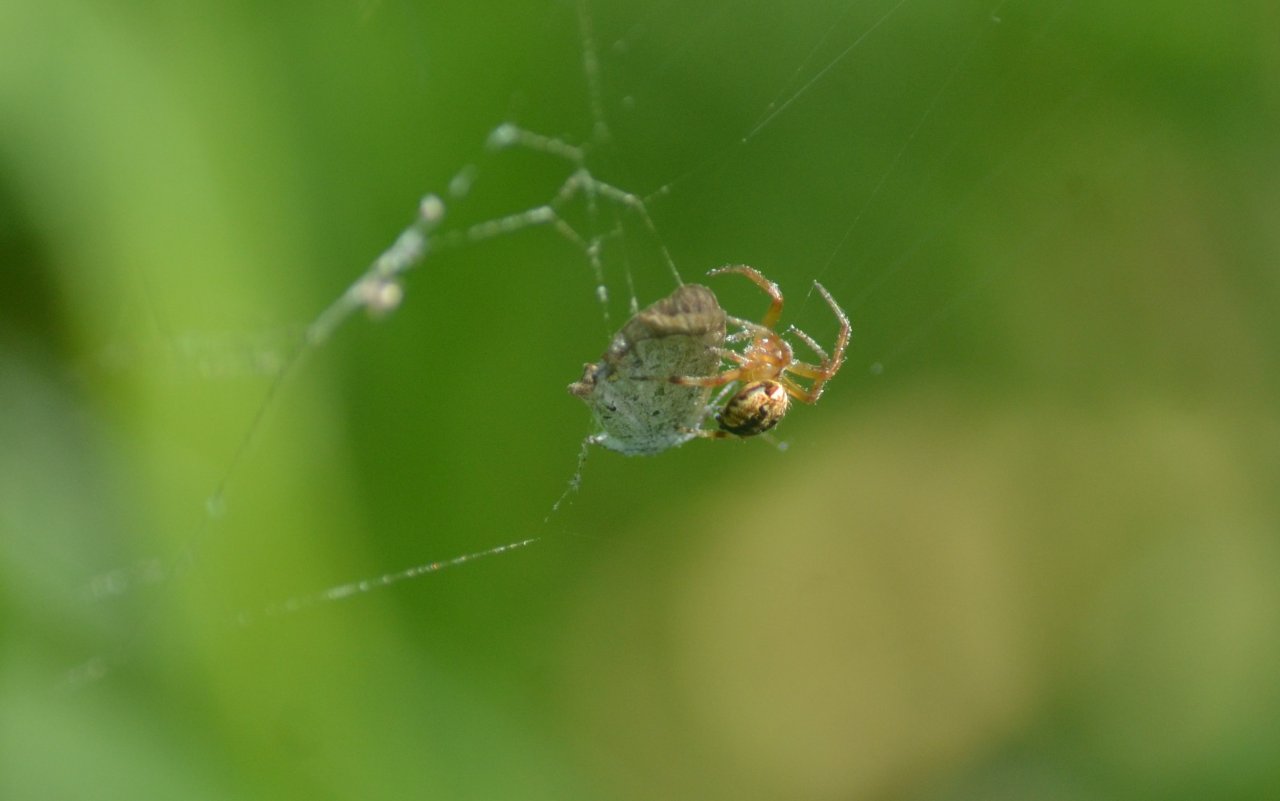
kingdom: Animalia
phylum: Arthropoda
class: Insecta
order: Lepidoptera
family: Lycaenidae
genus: Celastrina
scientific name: Celastrina
